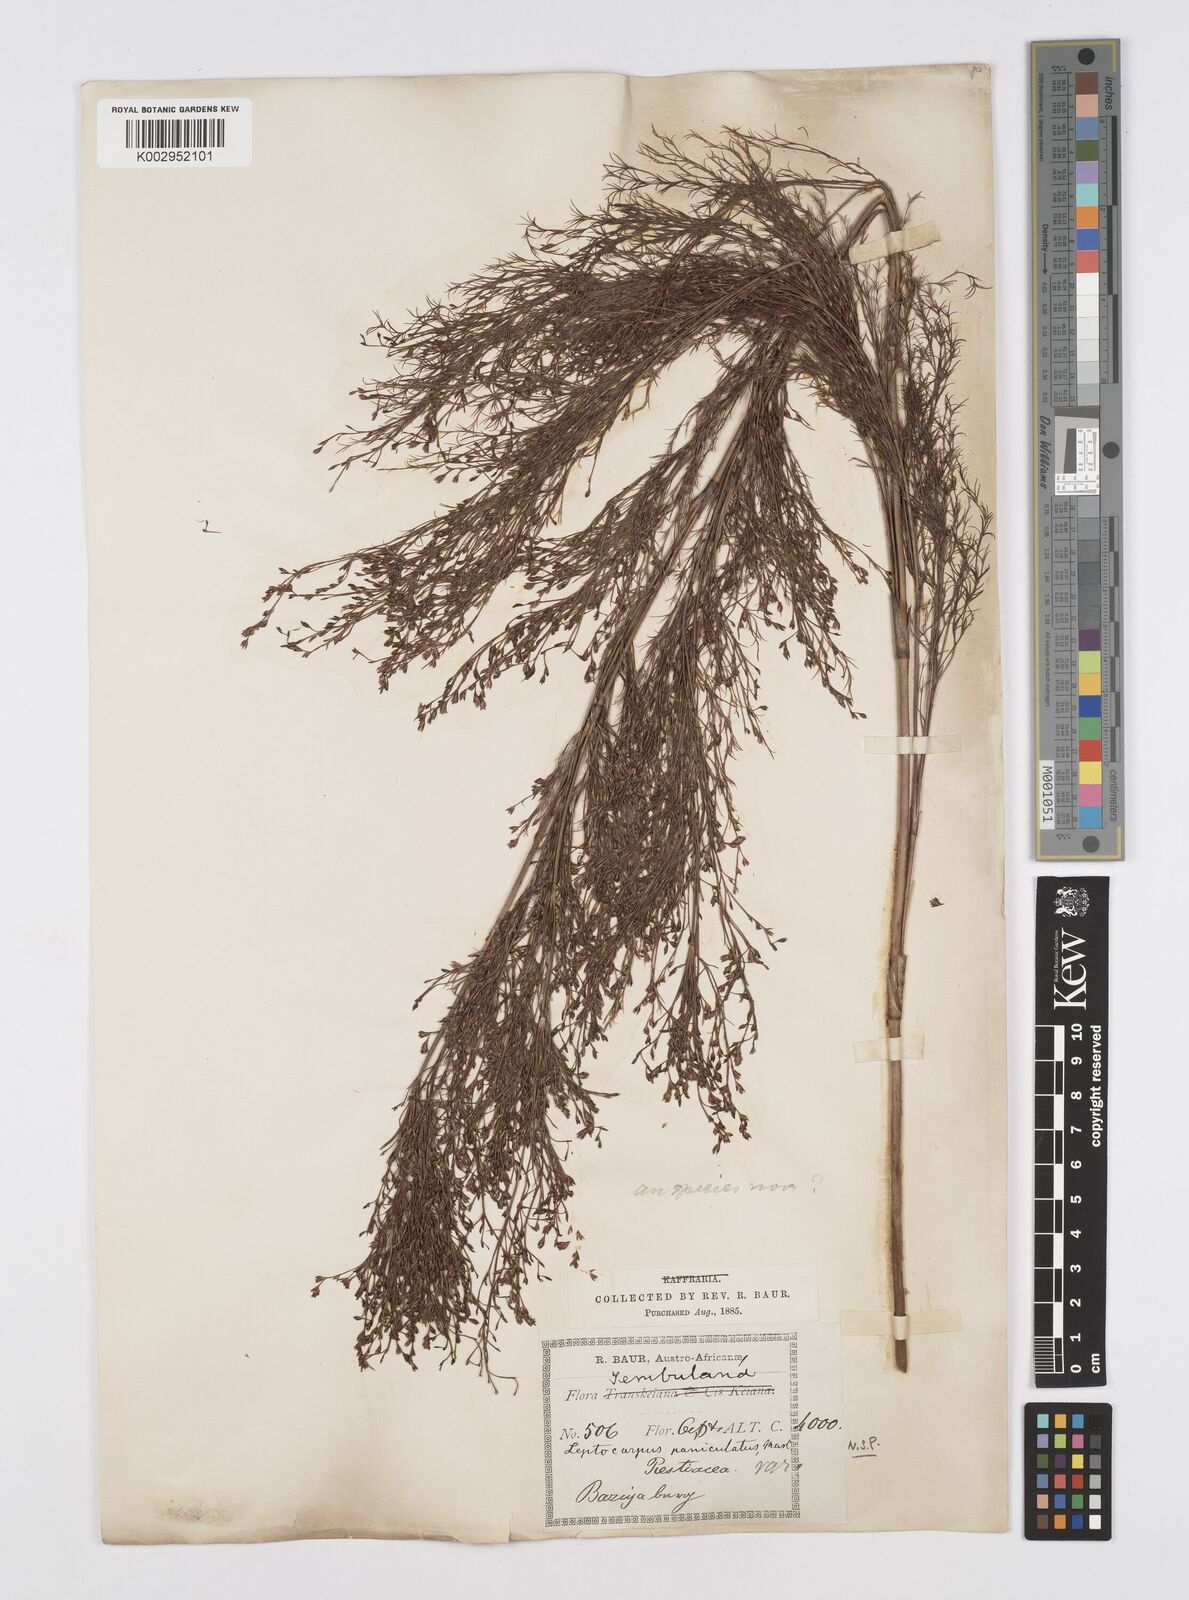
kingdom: Plantae
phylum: Tracheophyta
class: Liliopsida
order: Poales
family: Restionaceae
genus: Restio
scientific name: Restio paniculatus
